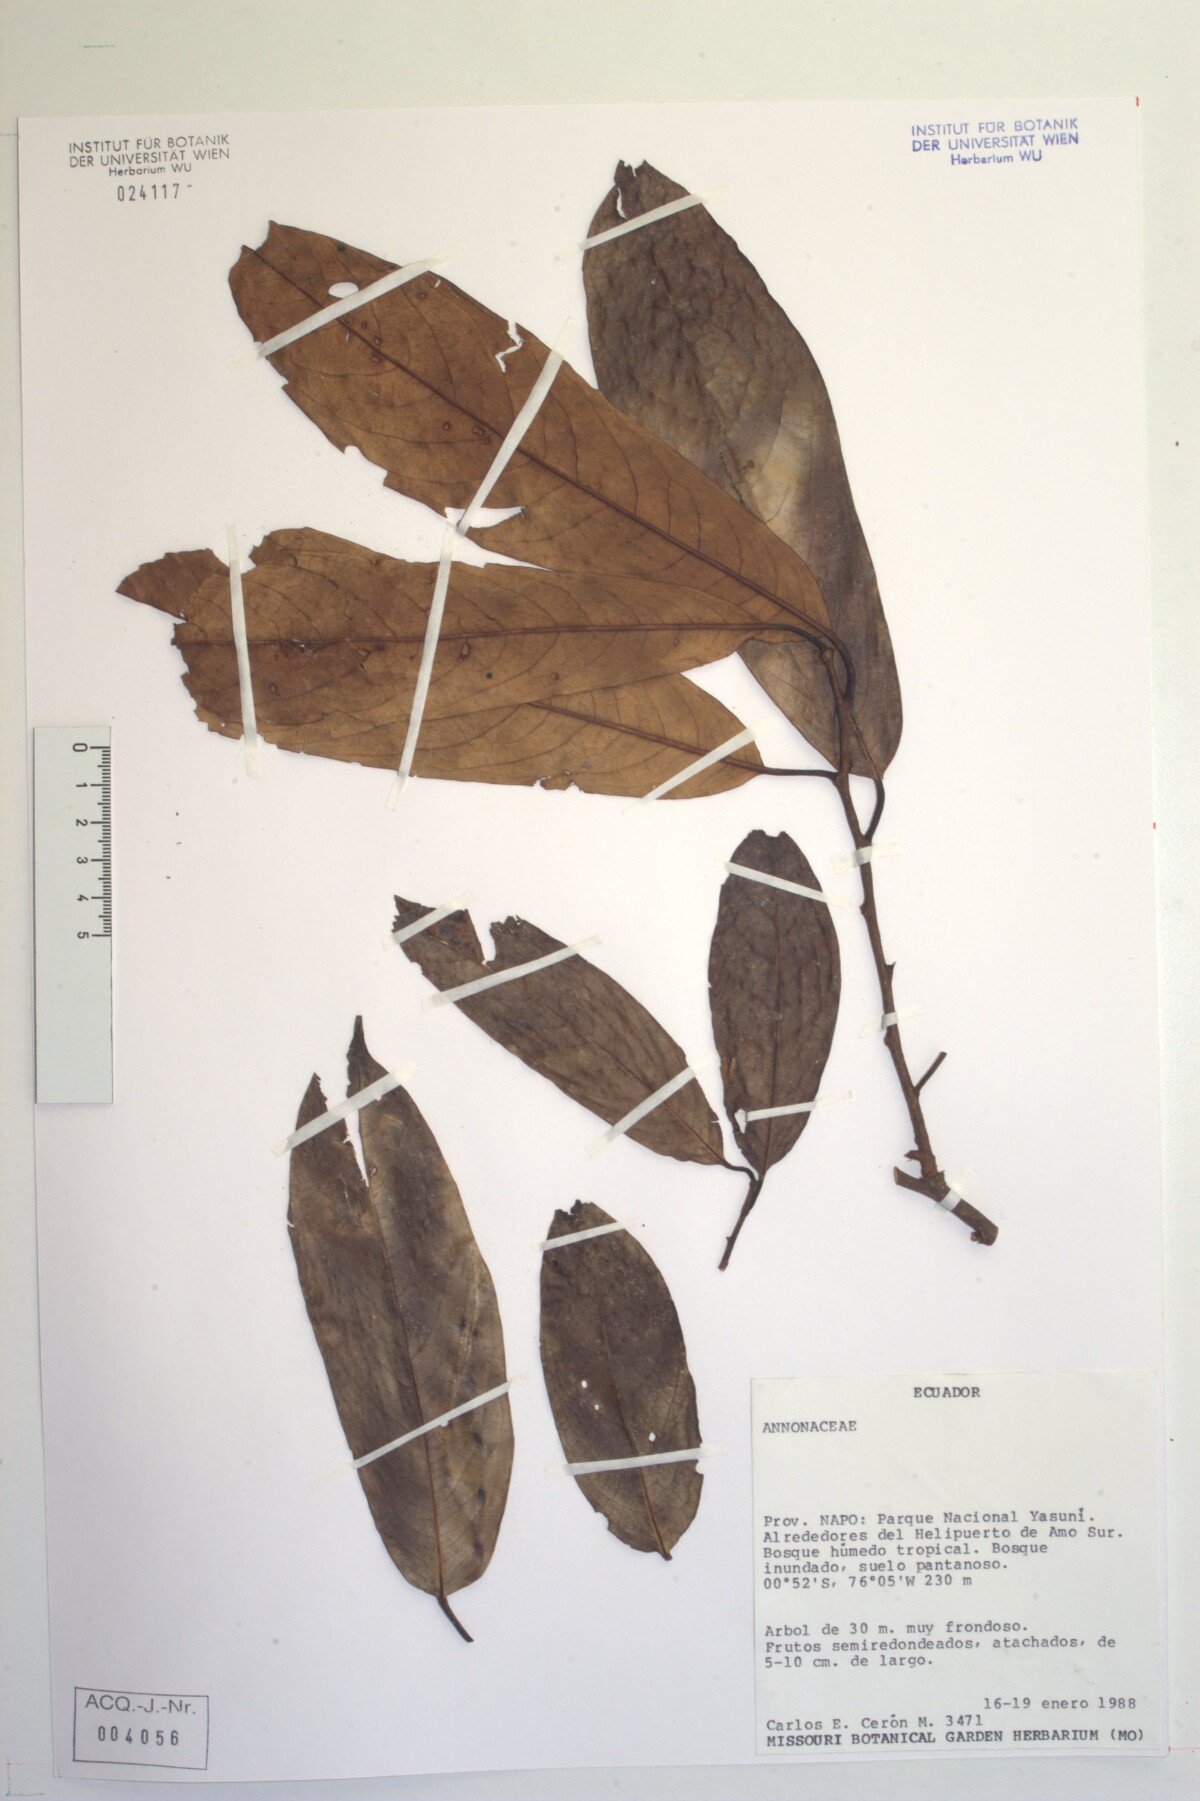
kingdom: Plantae
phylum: Tracheophyta
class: Magnoliopsida
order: Magnoliales
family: Annonaceae
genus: Annona
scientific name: Annona
